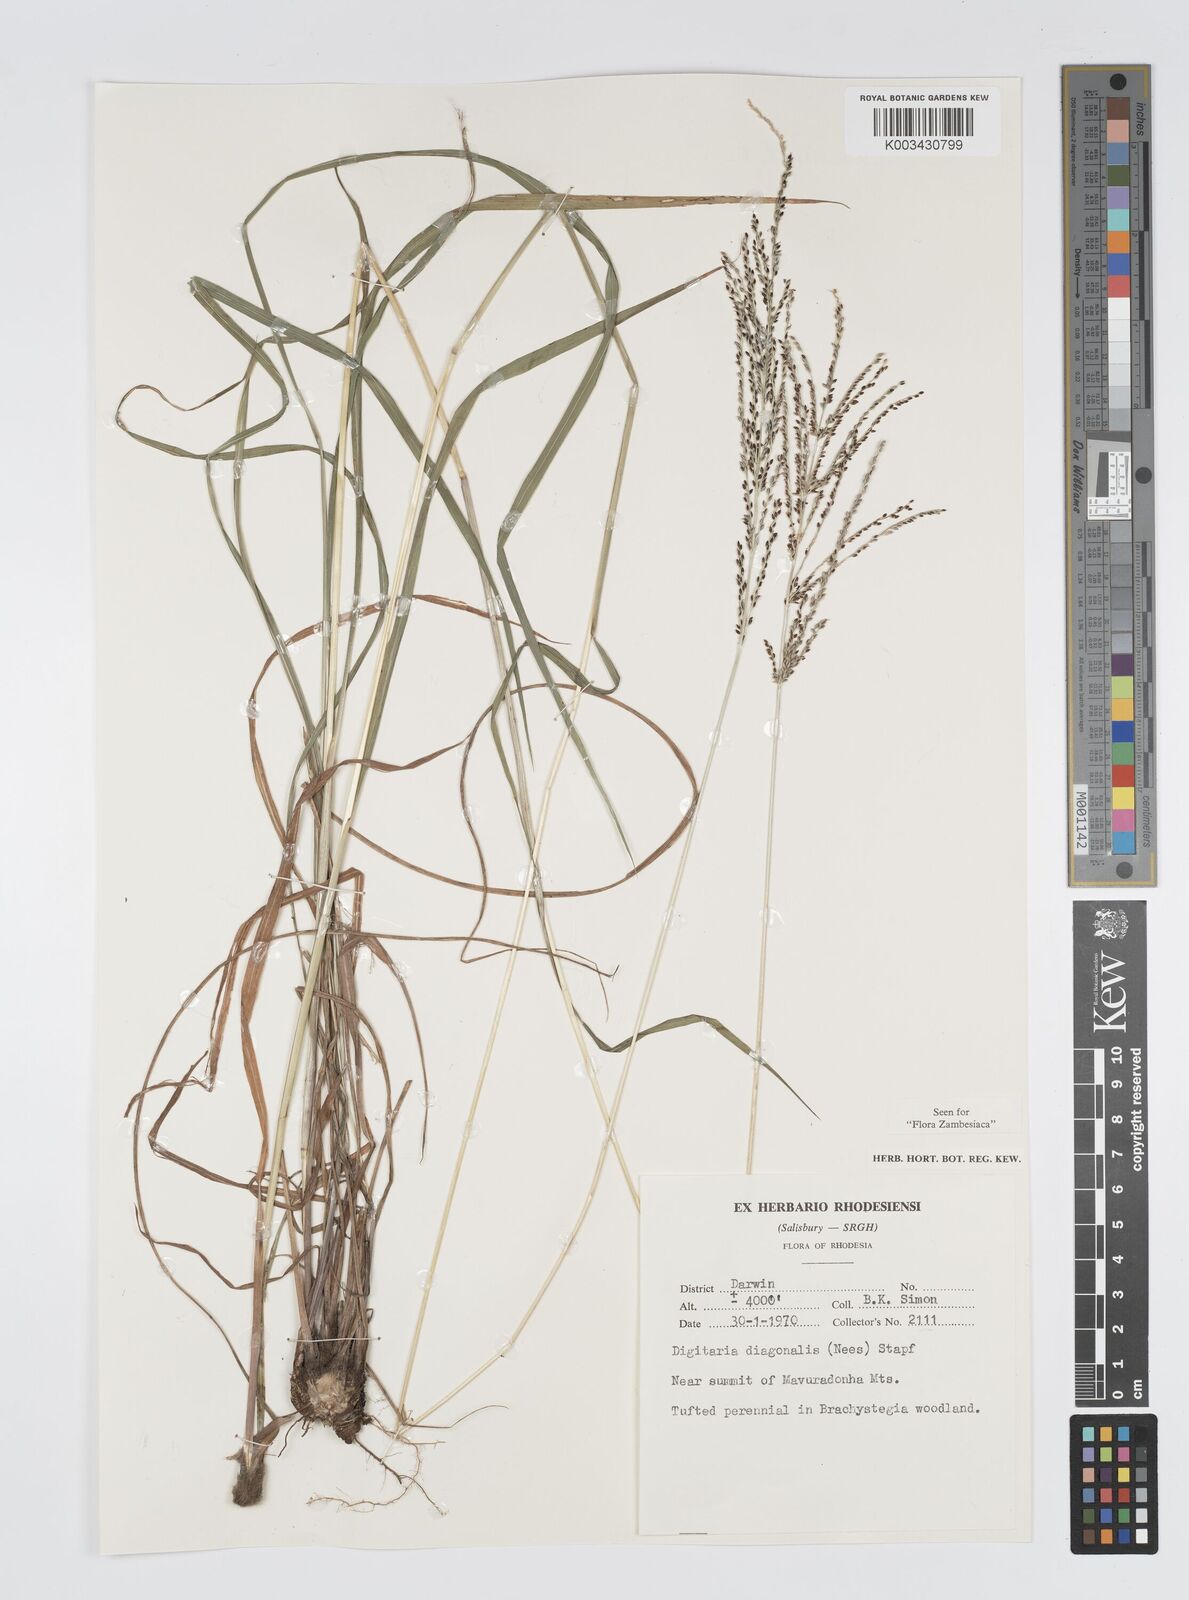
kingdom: Plantae
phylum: Tracheophyta
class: Liliopsida
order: Poales
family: Poaceae
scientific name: Poaceae
